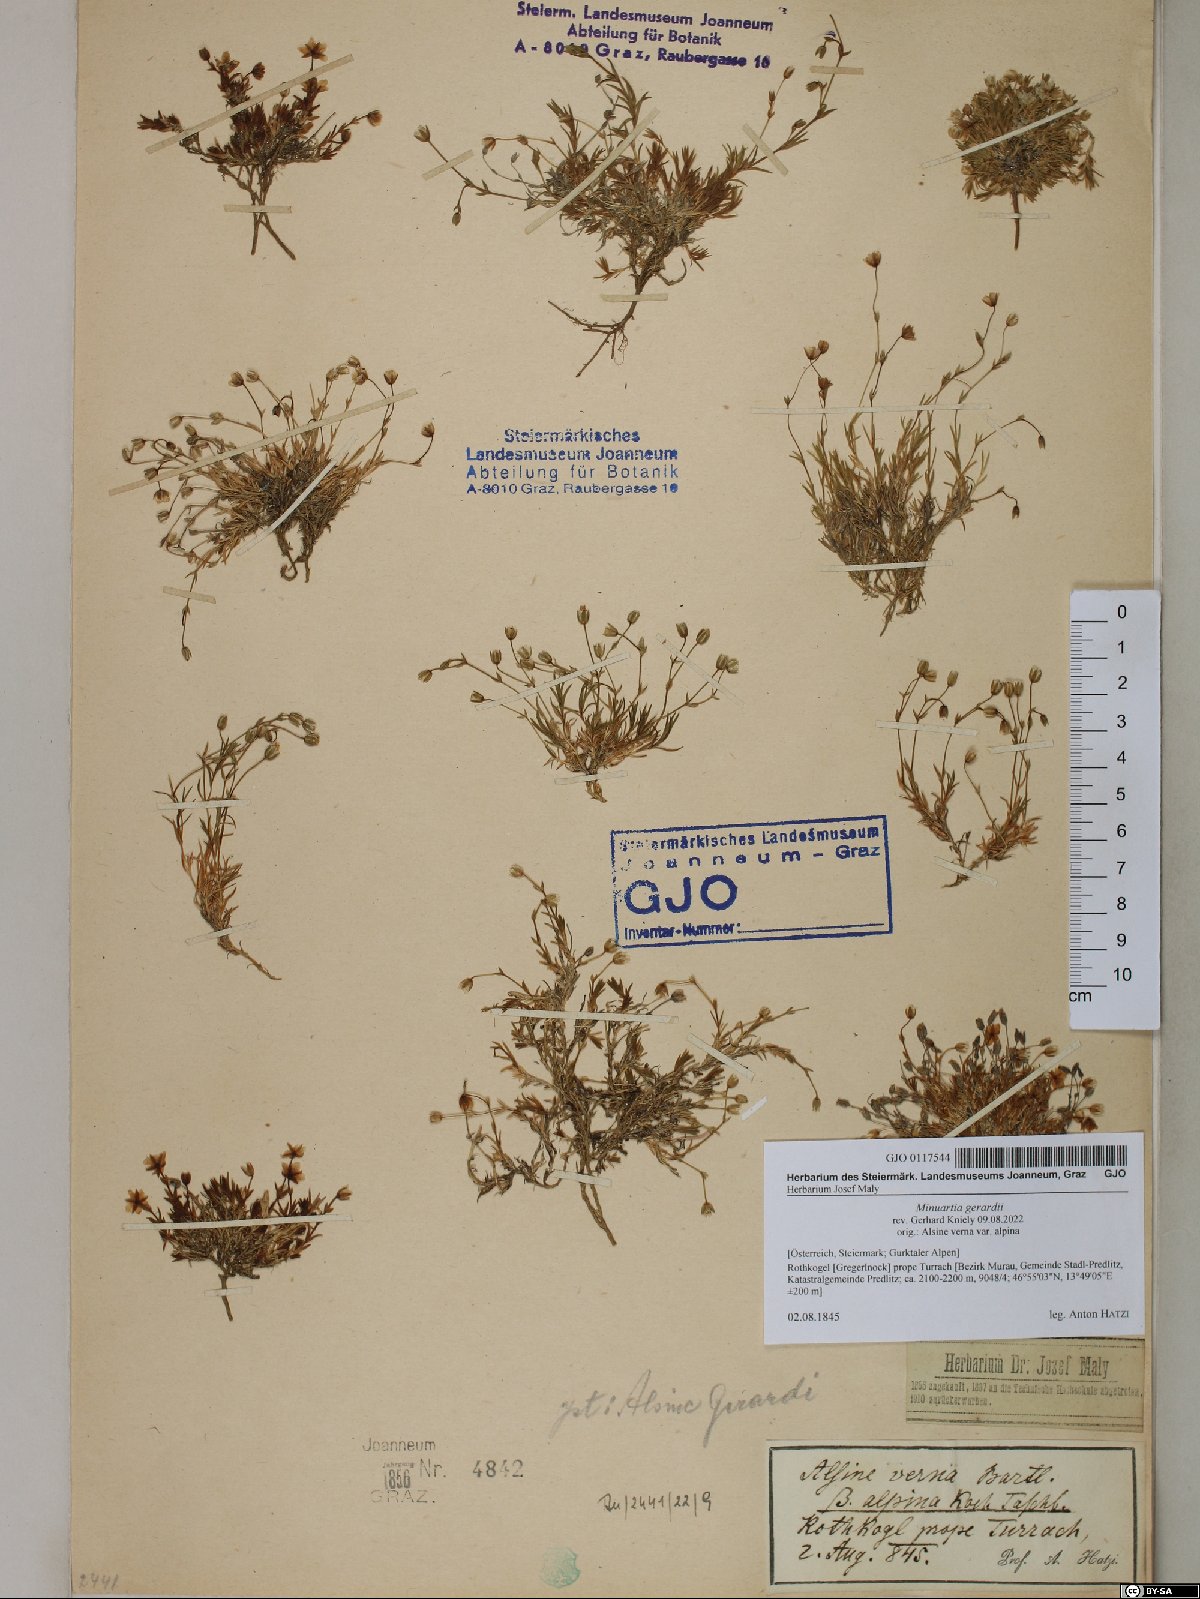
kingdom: Plantae
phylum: Tracheophyta
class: Magnoliopsida
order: Caryophyllales
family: Caryophyllaceae
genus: Sabulina
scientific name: Sabulina verna
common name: Spring sandwort
